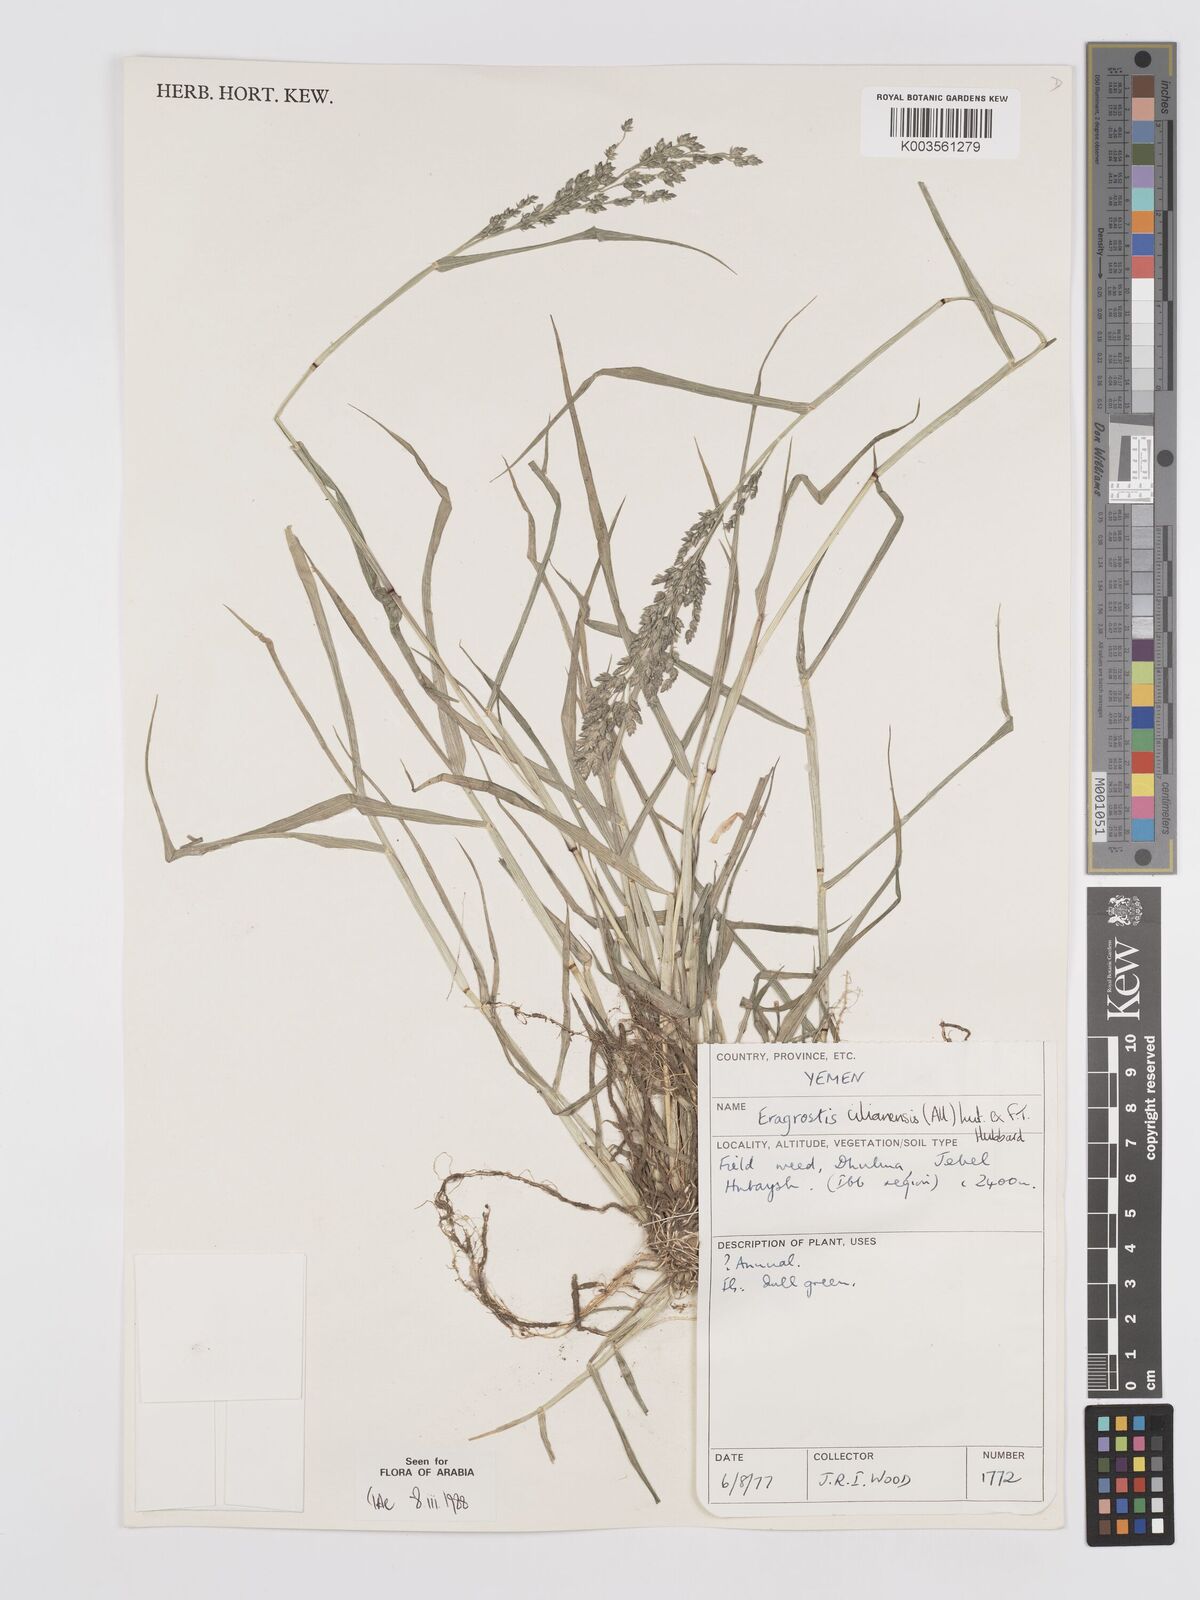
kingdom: Plantae
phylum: Tracheophyta
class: Liliopsida
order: Poales
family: Poaceae
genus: Eragrostis
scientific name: Eragrostis cilianensis
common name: Stinkgrass
